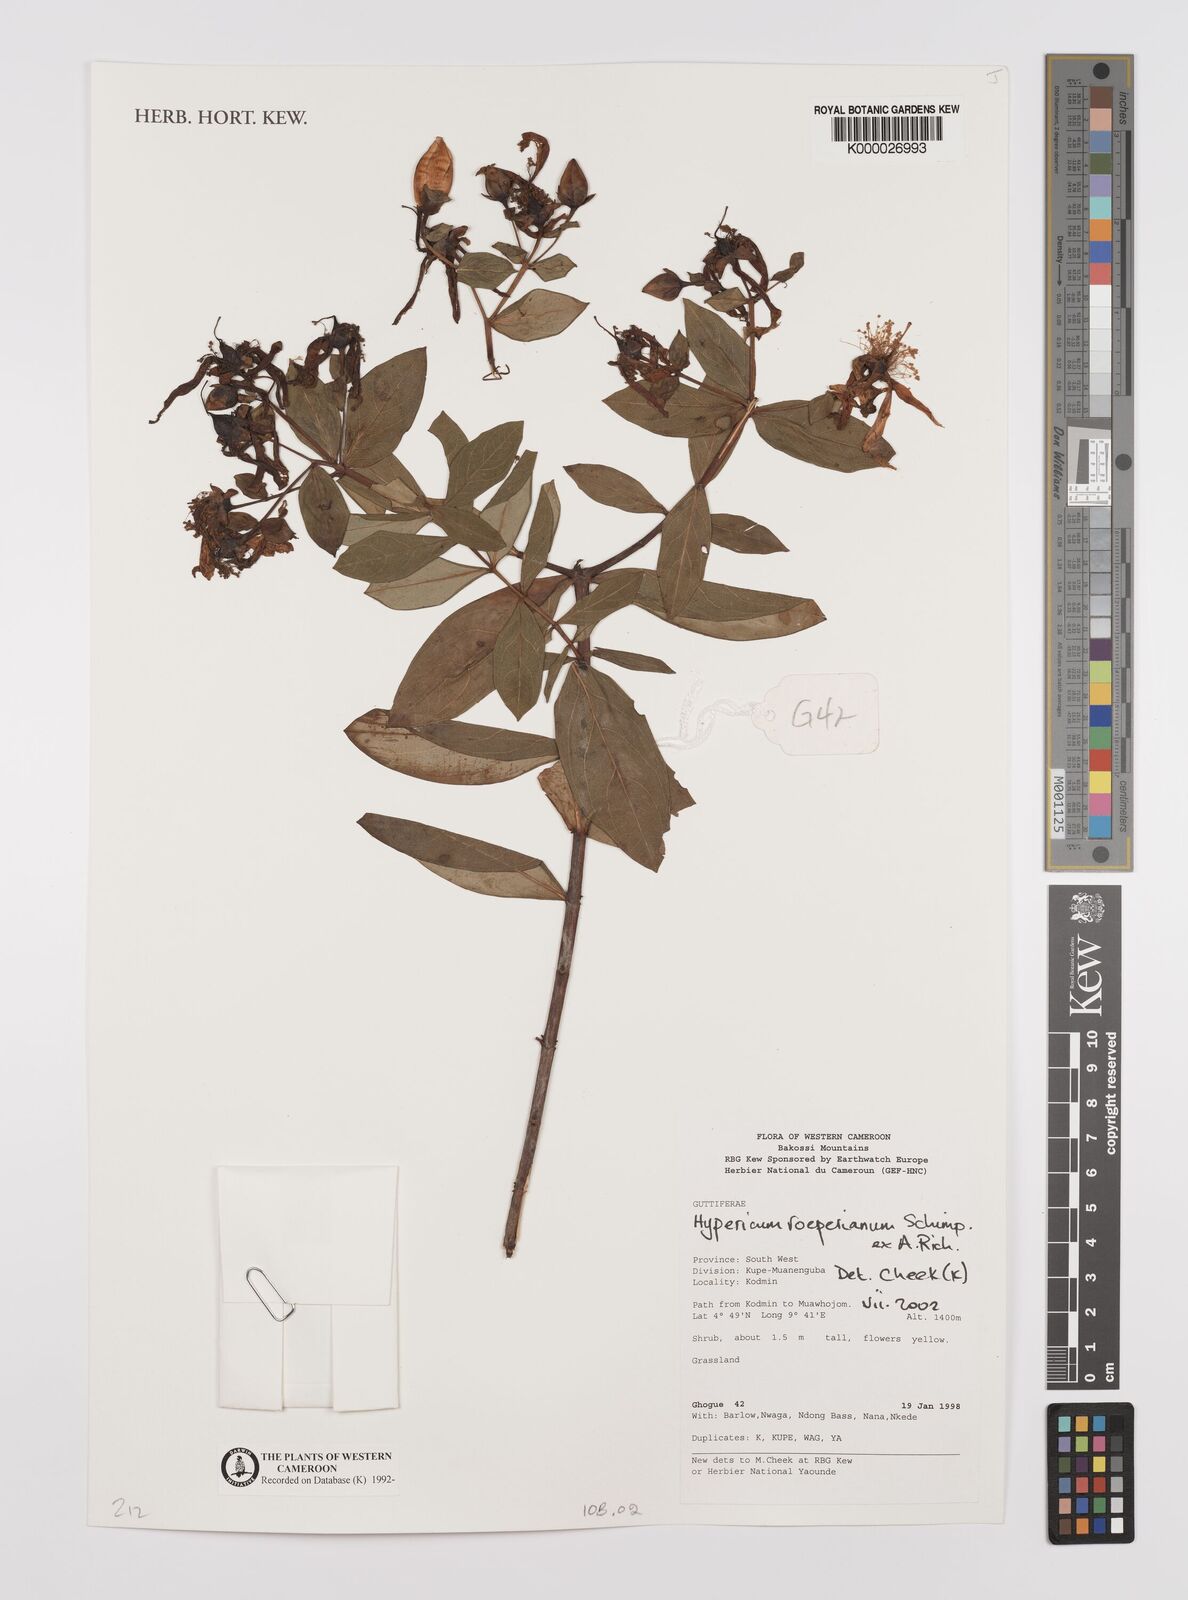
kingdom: Plantae
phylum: Tracheophyta
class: Magnoliopsida
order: Malpighiales
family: Hypericaceae
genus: Hypericum
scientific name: Hypericum roeperianum
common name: Large-leaved curry-bush
